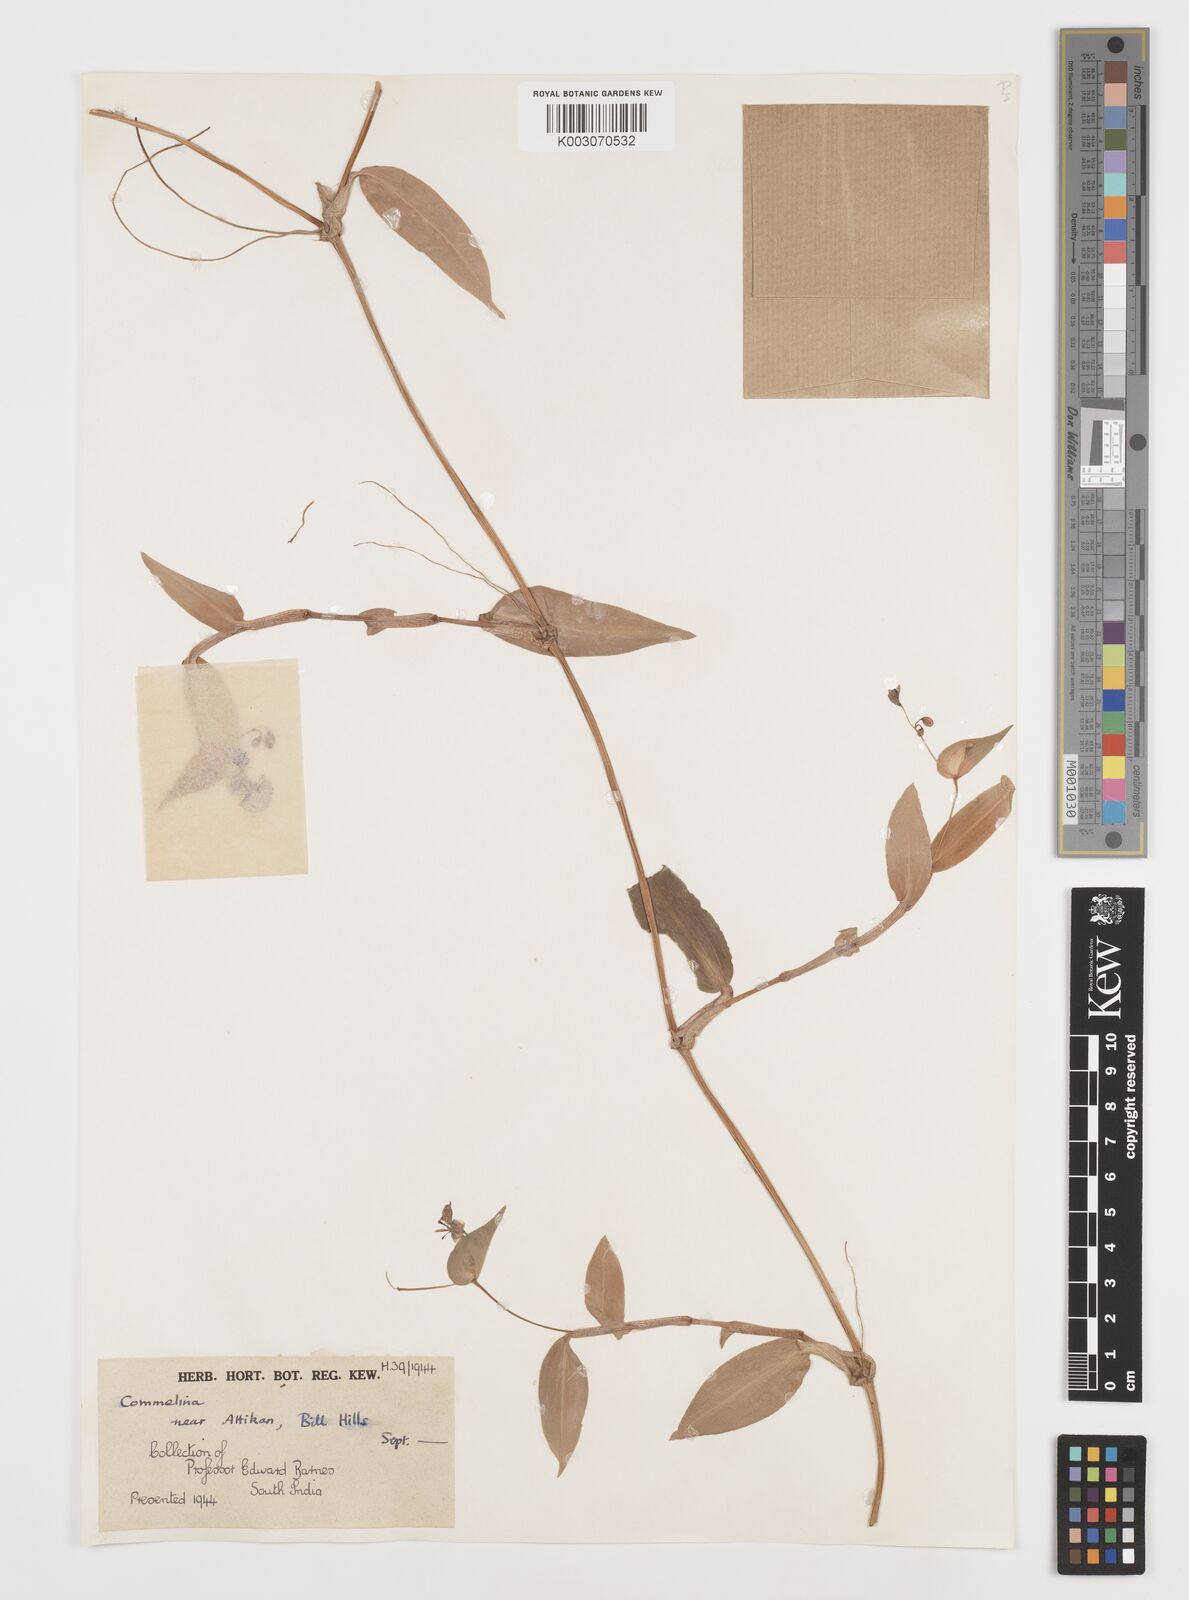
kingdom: Plantae
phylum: Tracheophyta
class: Liliopsida
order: Commelinales
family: Commelinaceae
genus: Commelina
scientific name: Commelina
